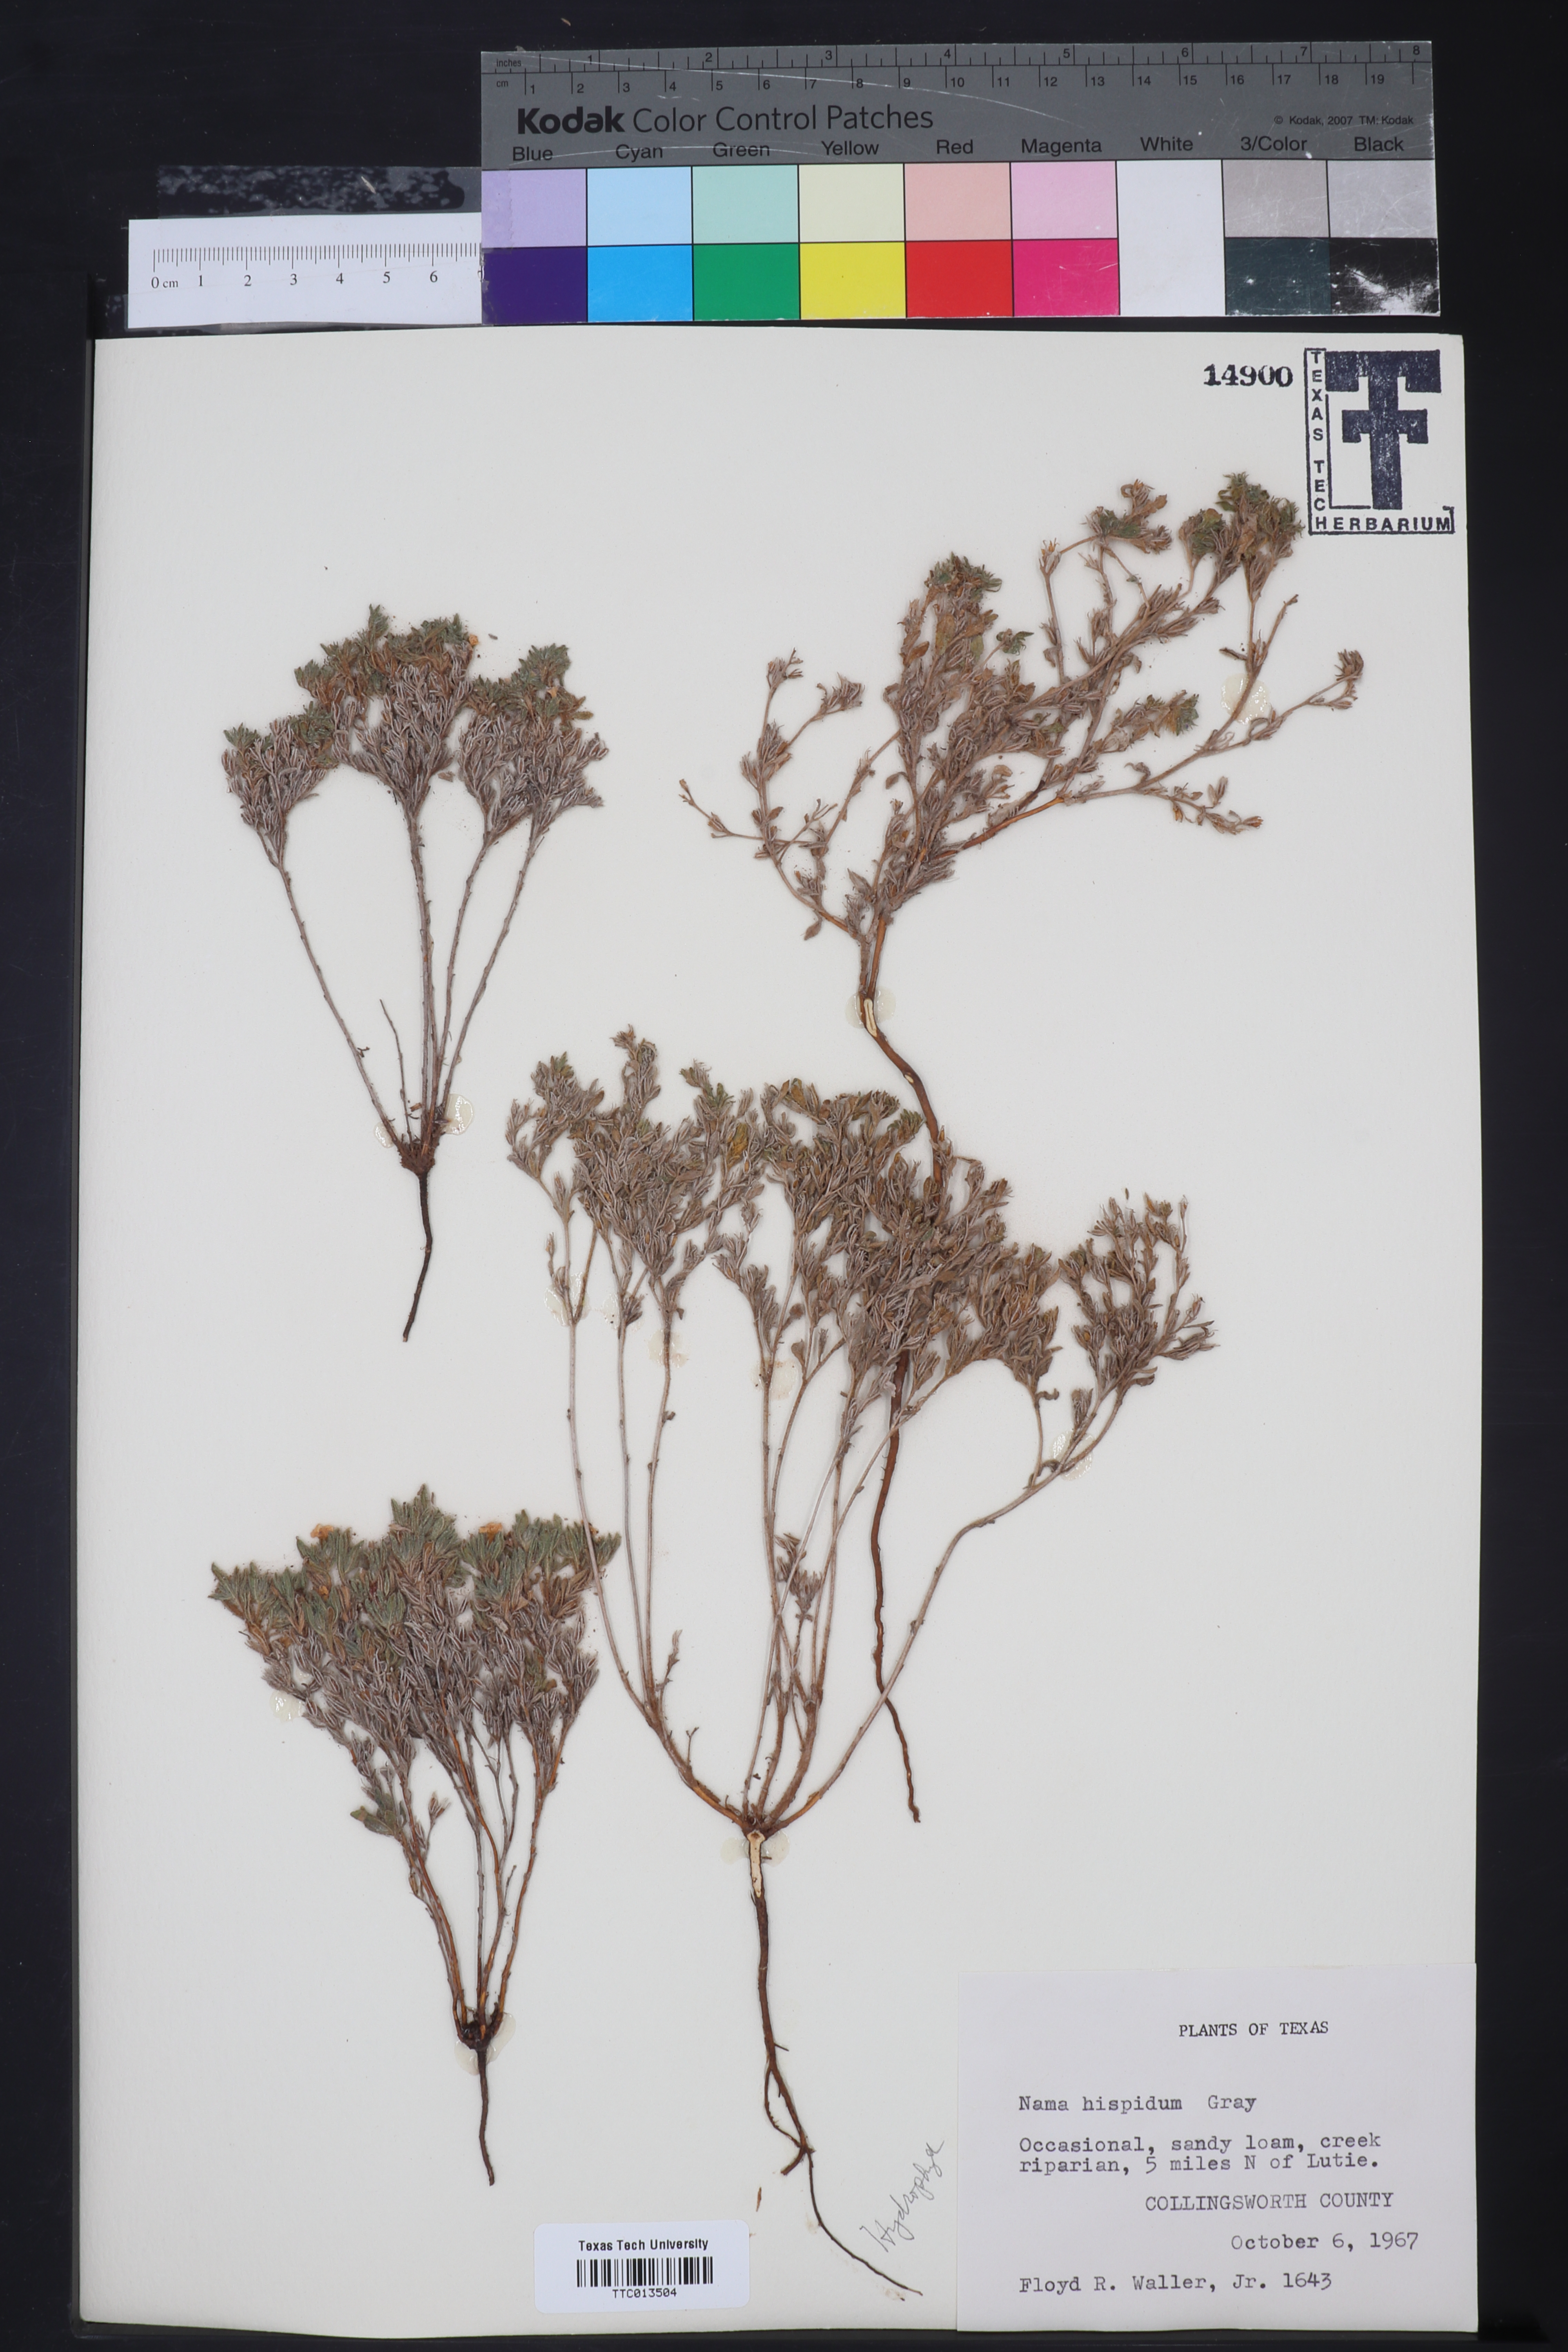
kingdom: Plantae
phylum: Tracheophyta
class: Magnoliopsida
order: Boraginales
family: Namaceae
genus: Nama
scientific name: Nama hispida
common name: Bristly nama
